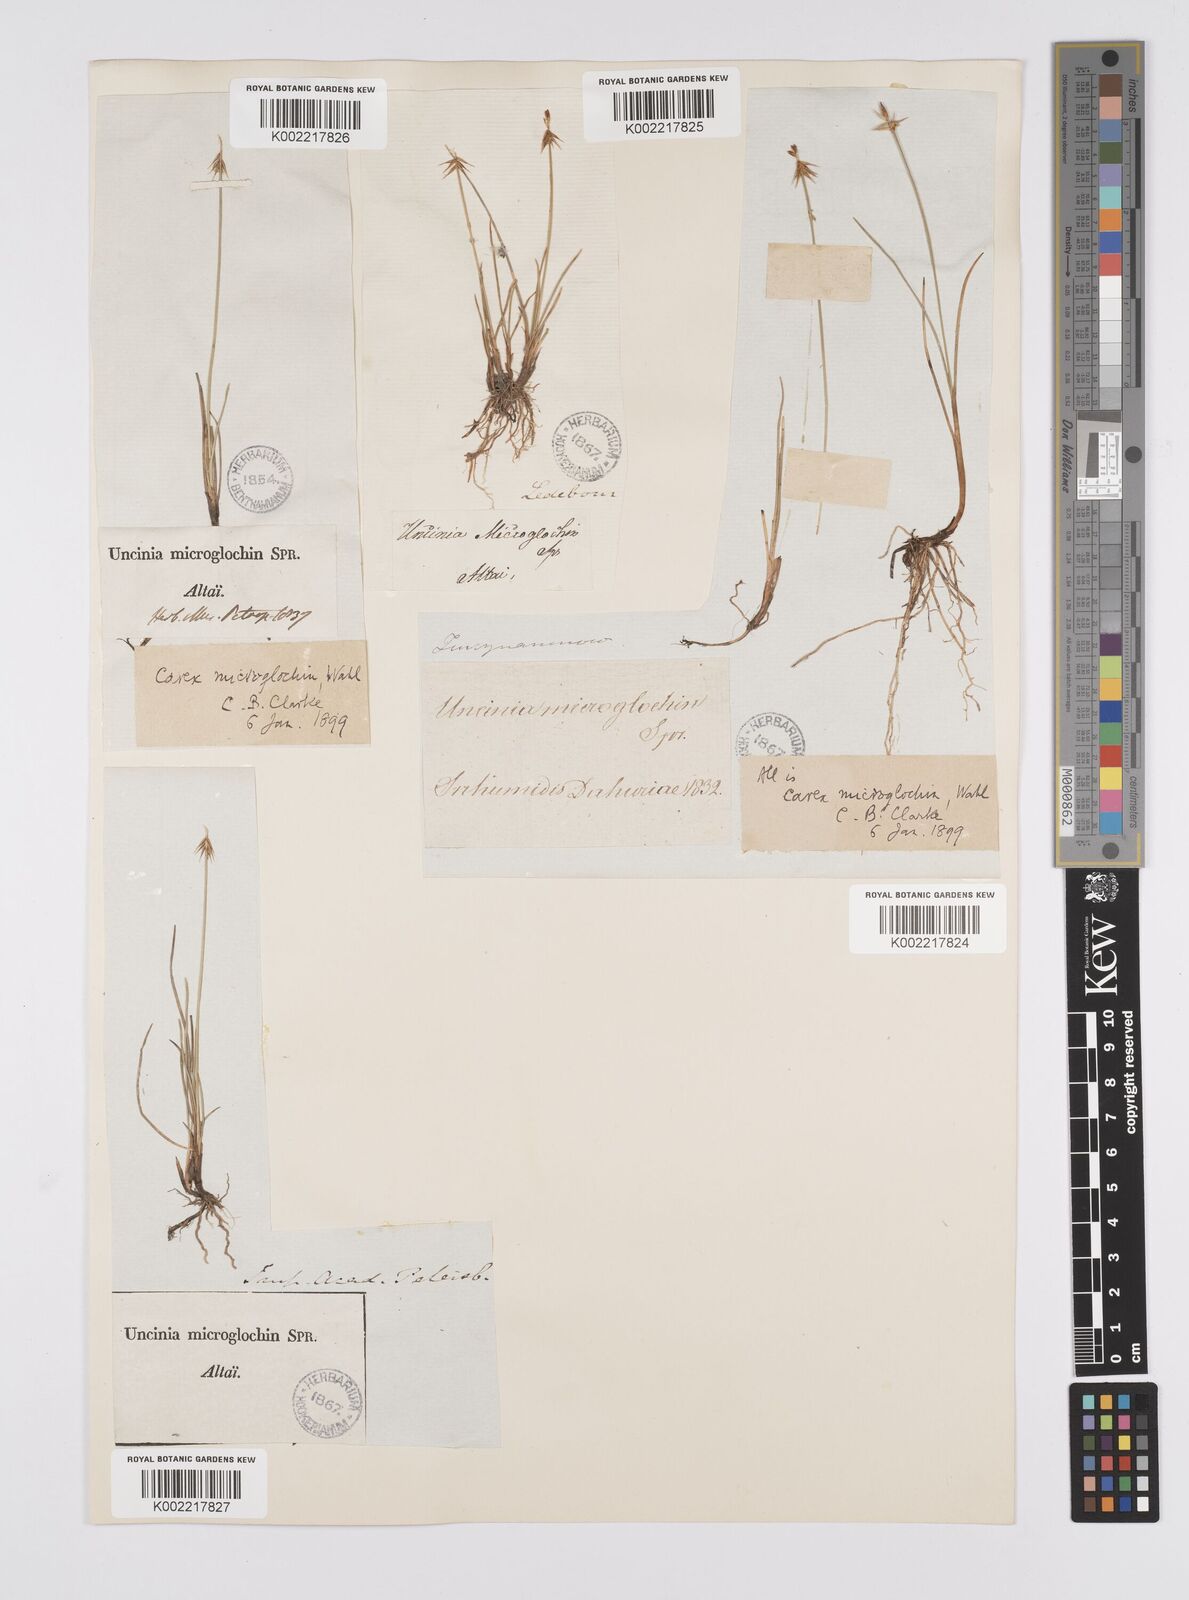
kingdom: Plantae
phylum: Tracheophyta
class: Liliopsida
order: Poales
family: Cyperaceae
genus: Carex
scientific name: Carex microglochin
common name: Bristle sedge
